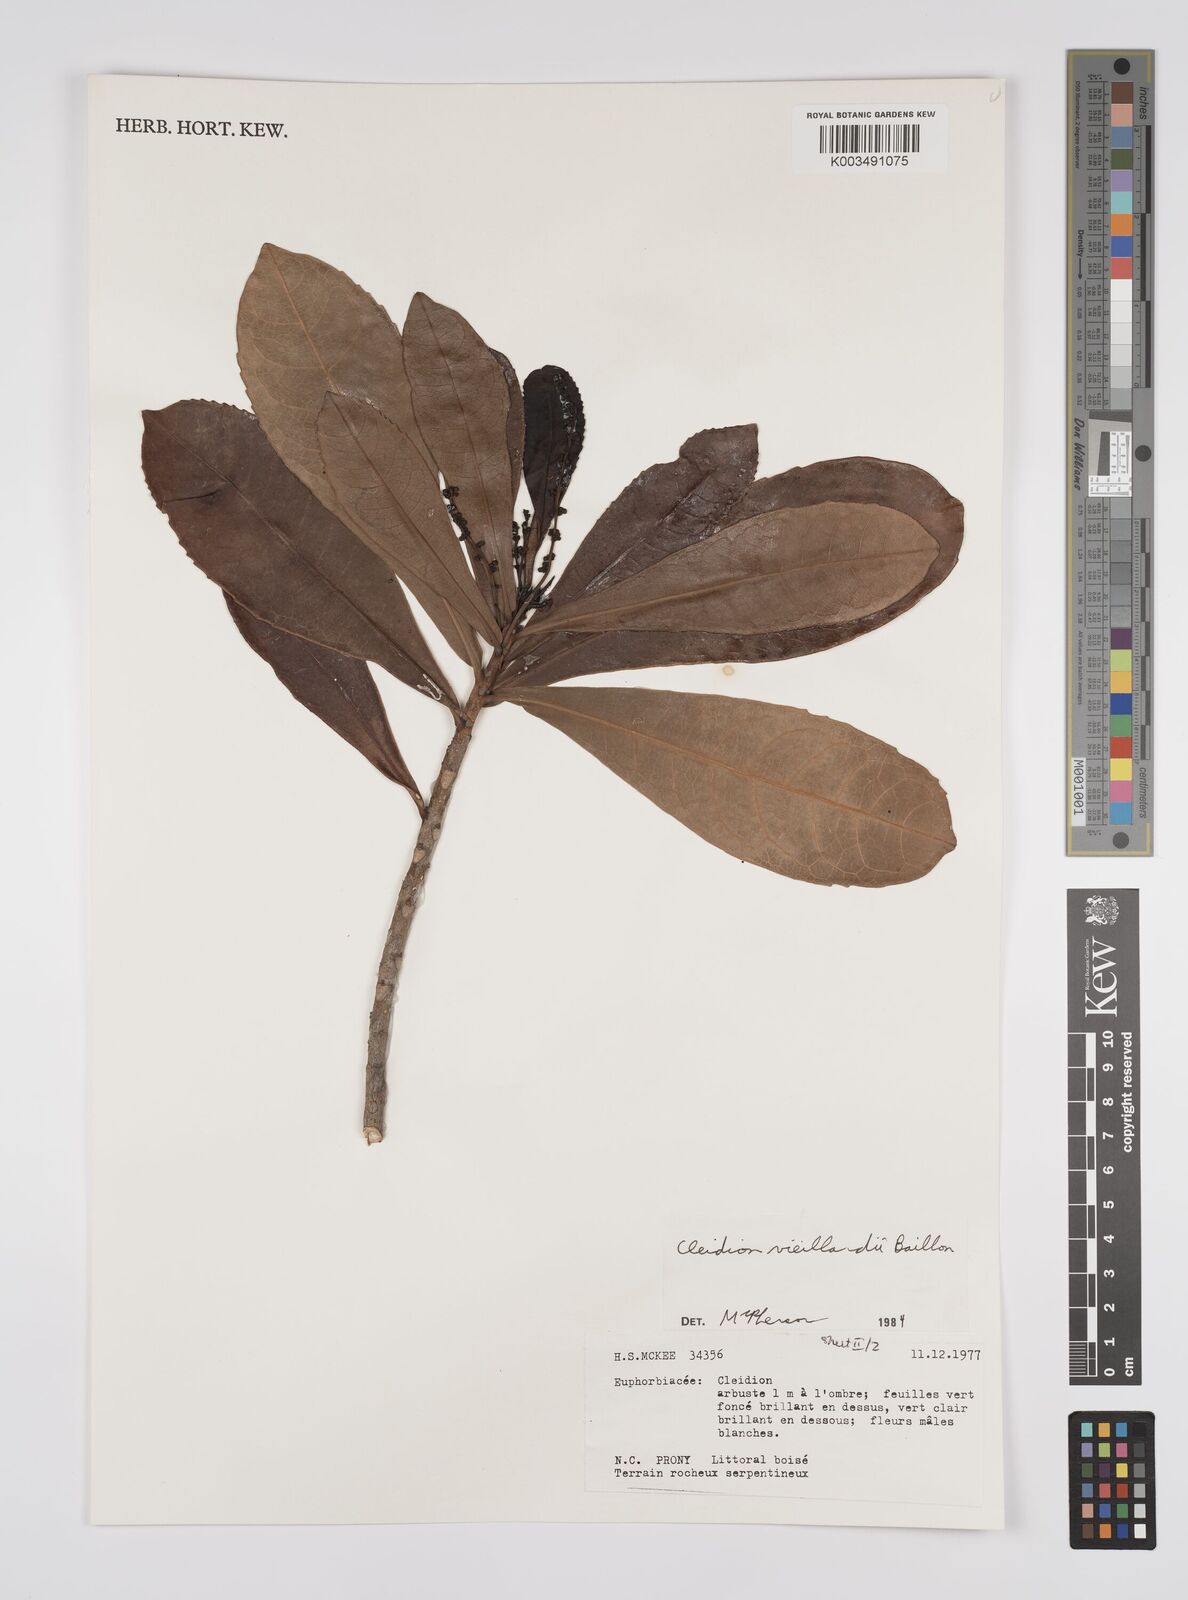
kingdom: Plantae
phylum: Tracheophyta
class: Magnoliopsida
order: Malpighiales
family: Euphorbiaceae
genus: Cleidion
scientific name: Cleidion vieillardii
